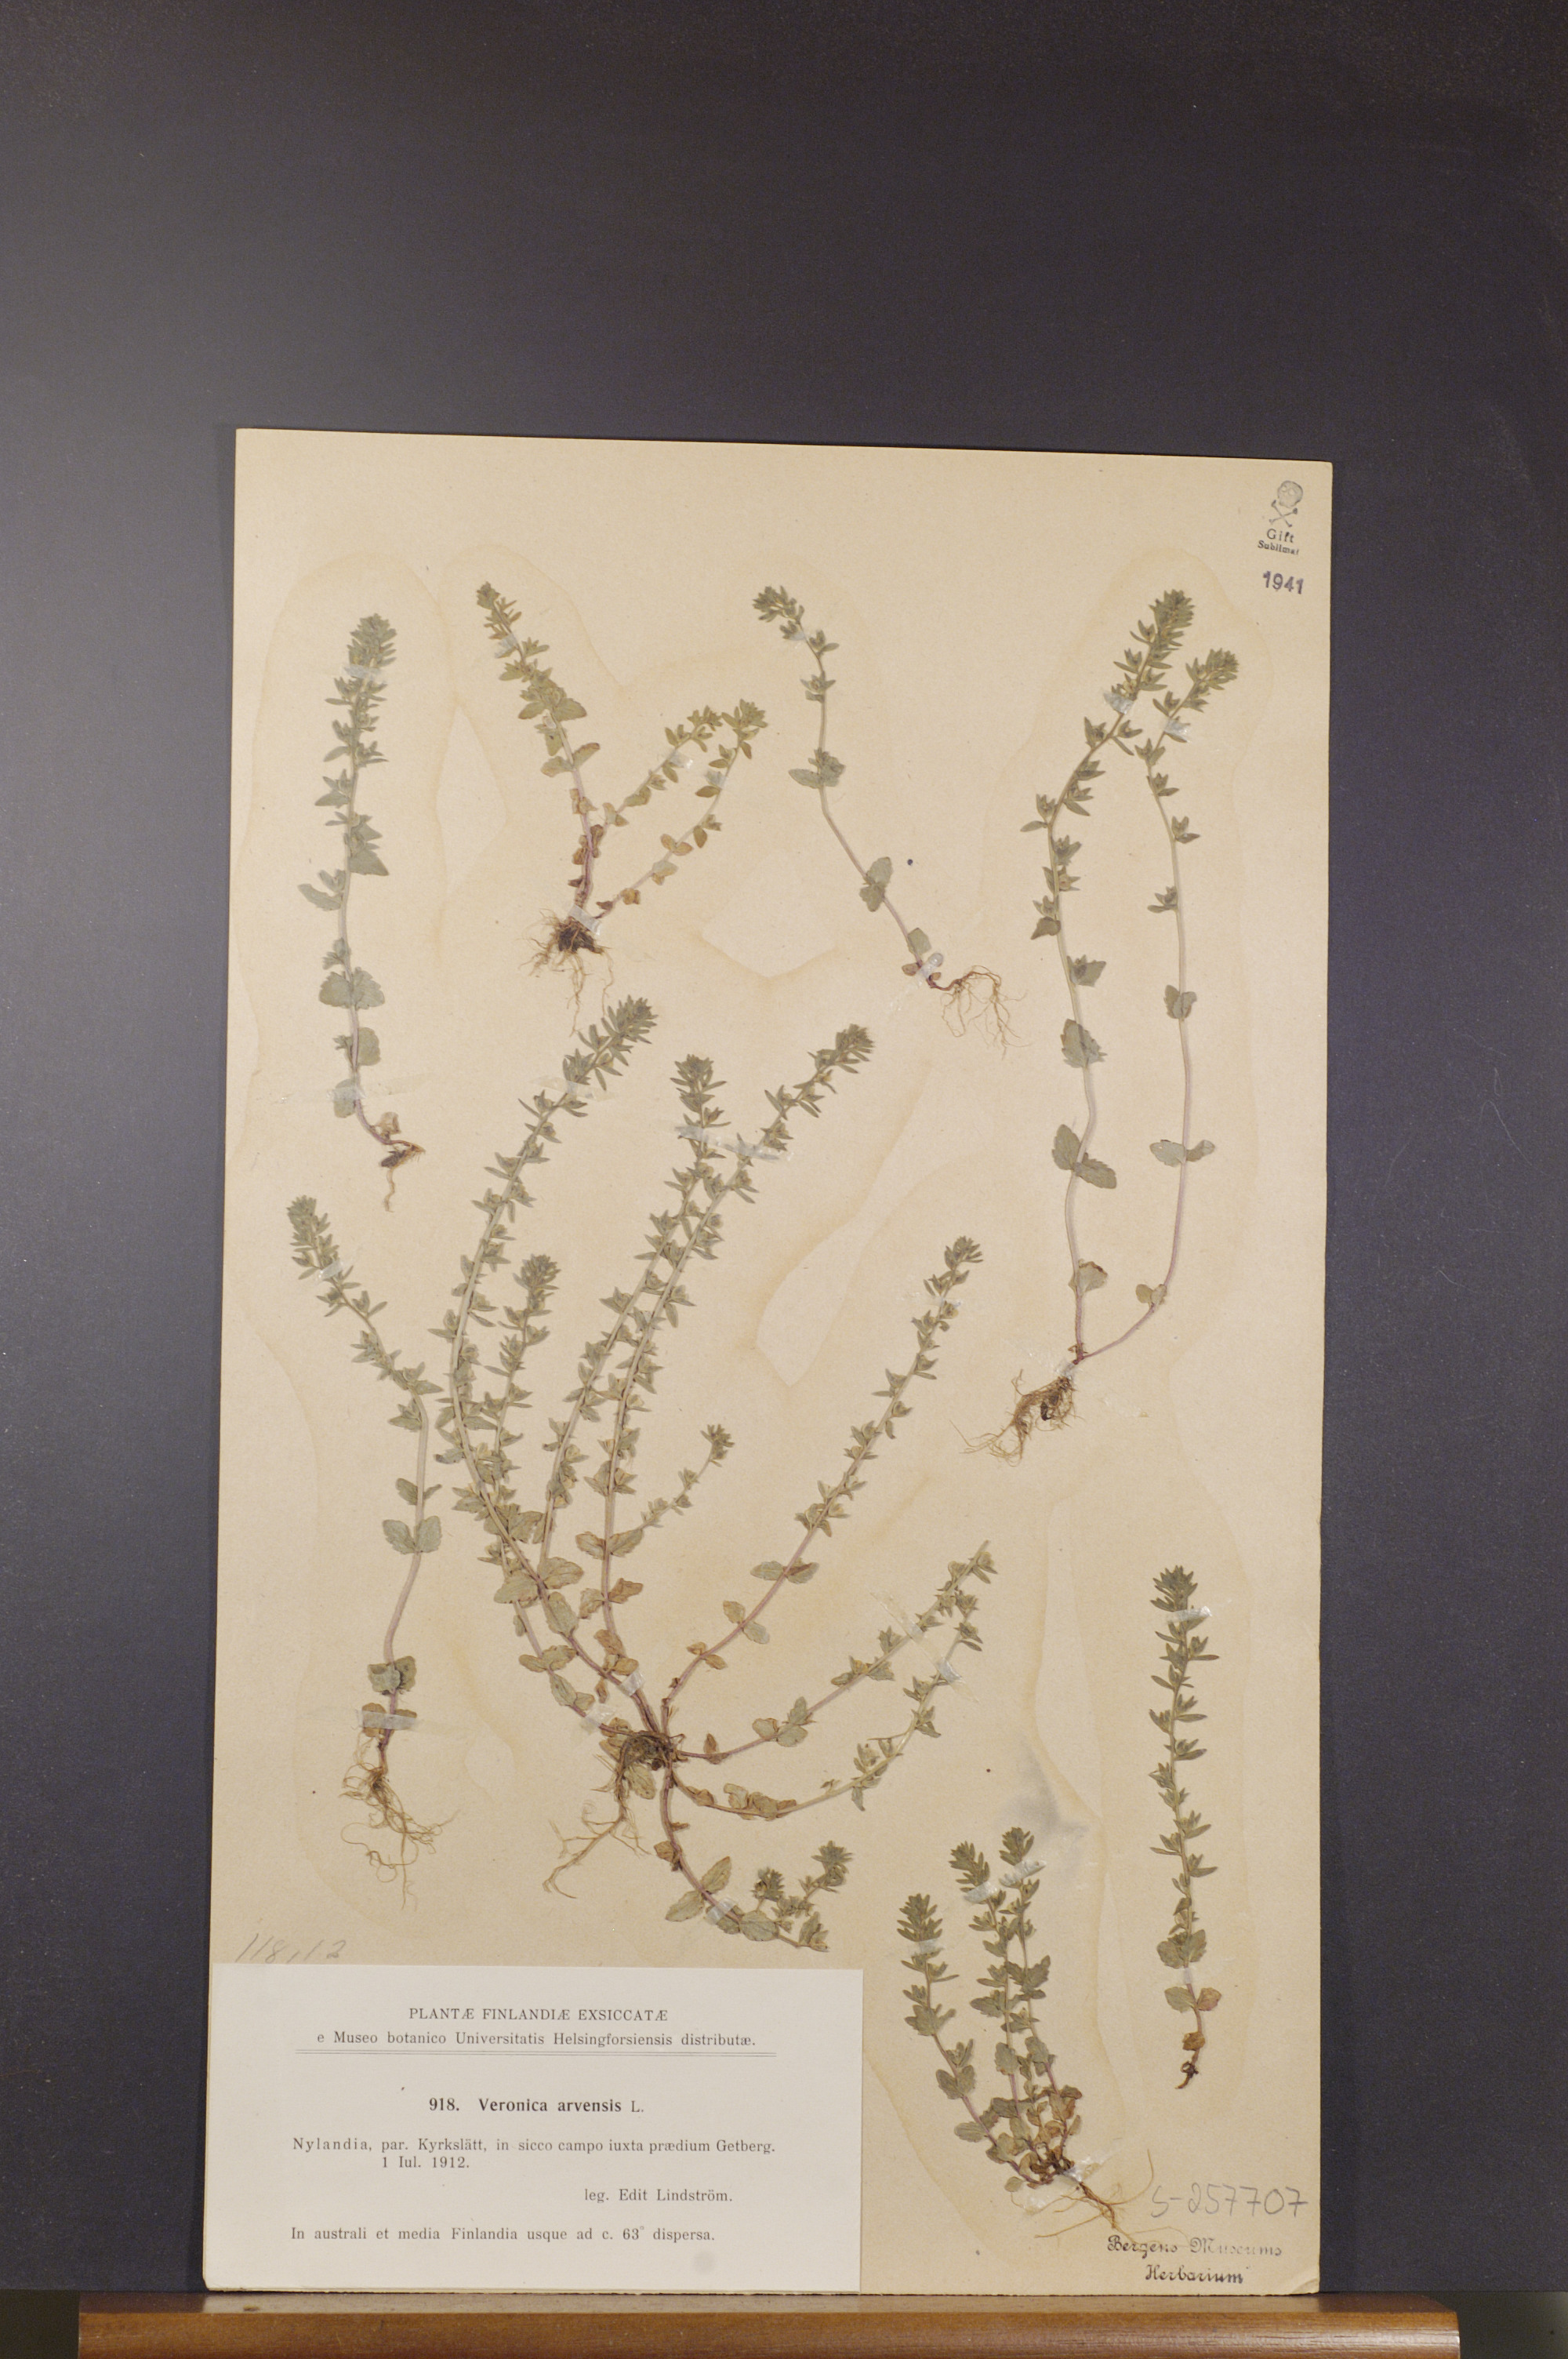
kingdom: Plantae
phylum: Tracheophyta
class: Magnoliopsida
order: Lamiales
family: Plantaginaceae
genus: Veronica
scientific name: Veronica arvensis
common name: Corn speedwell
